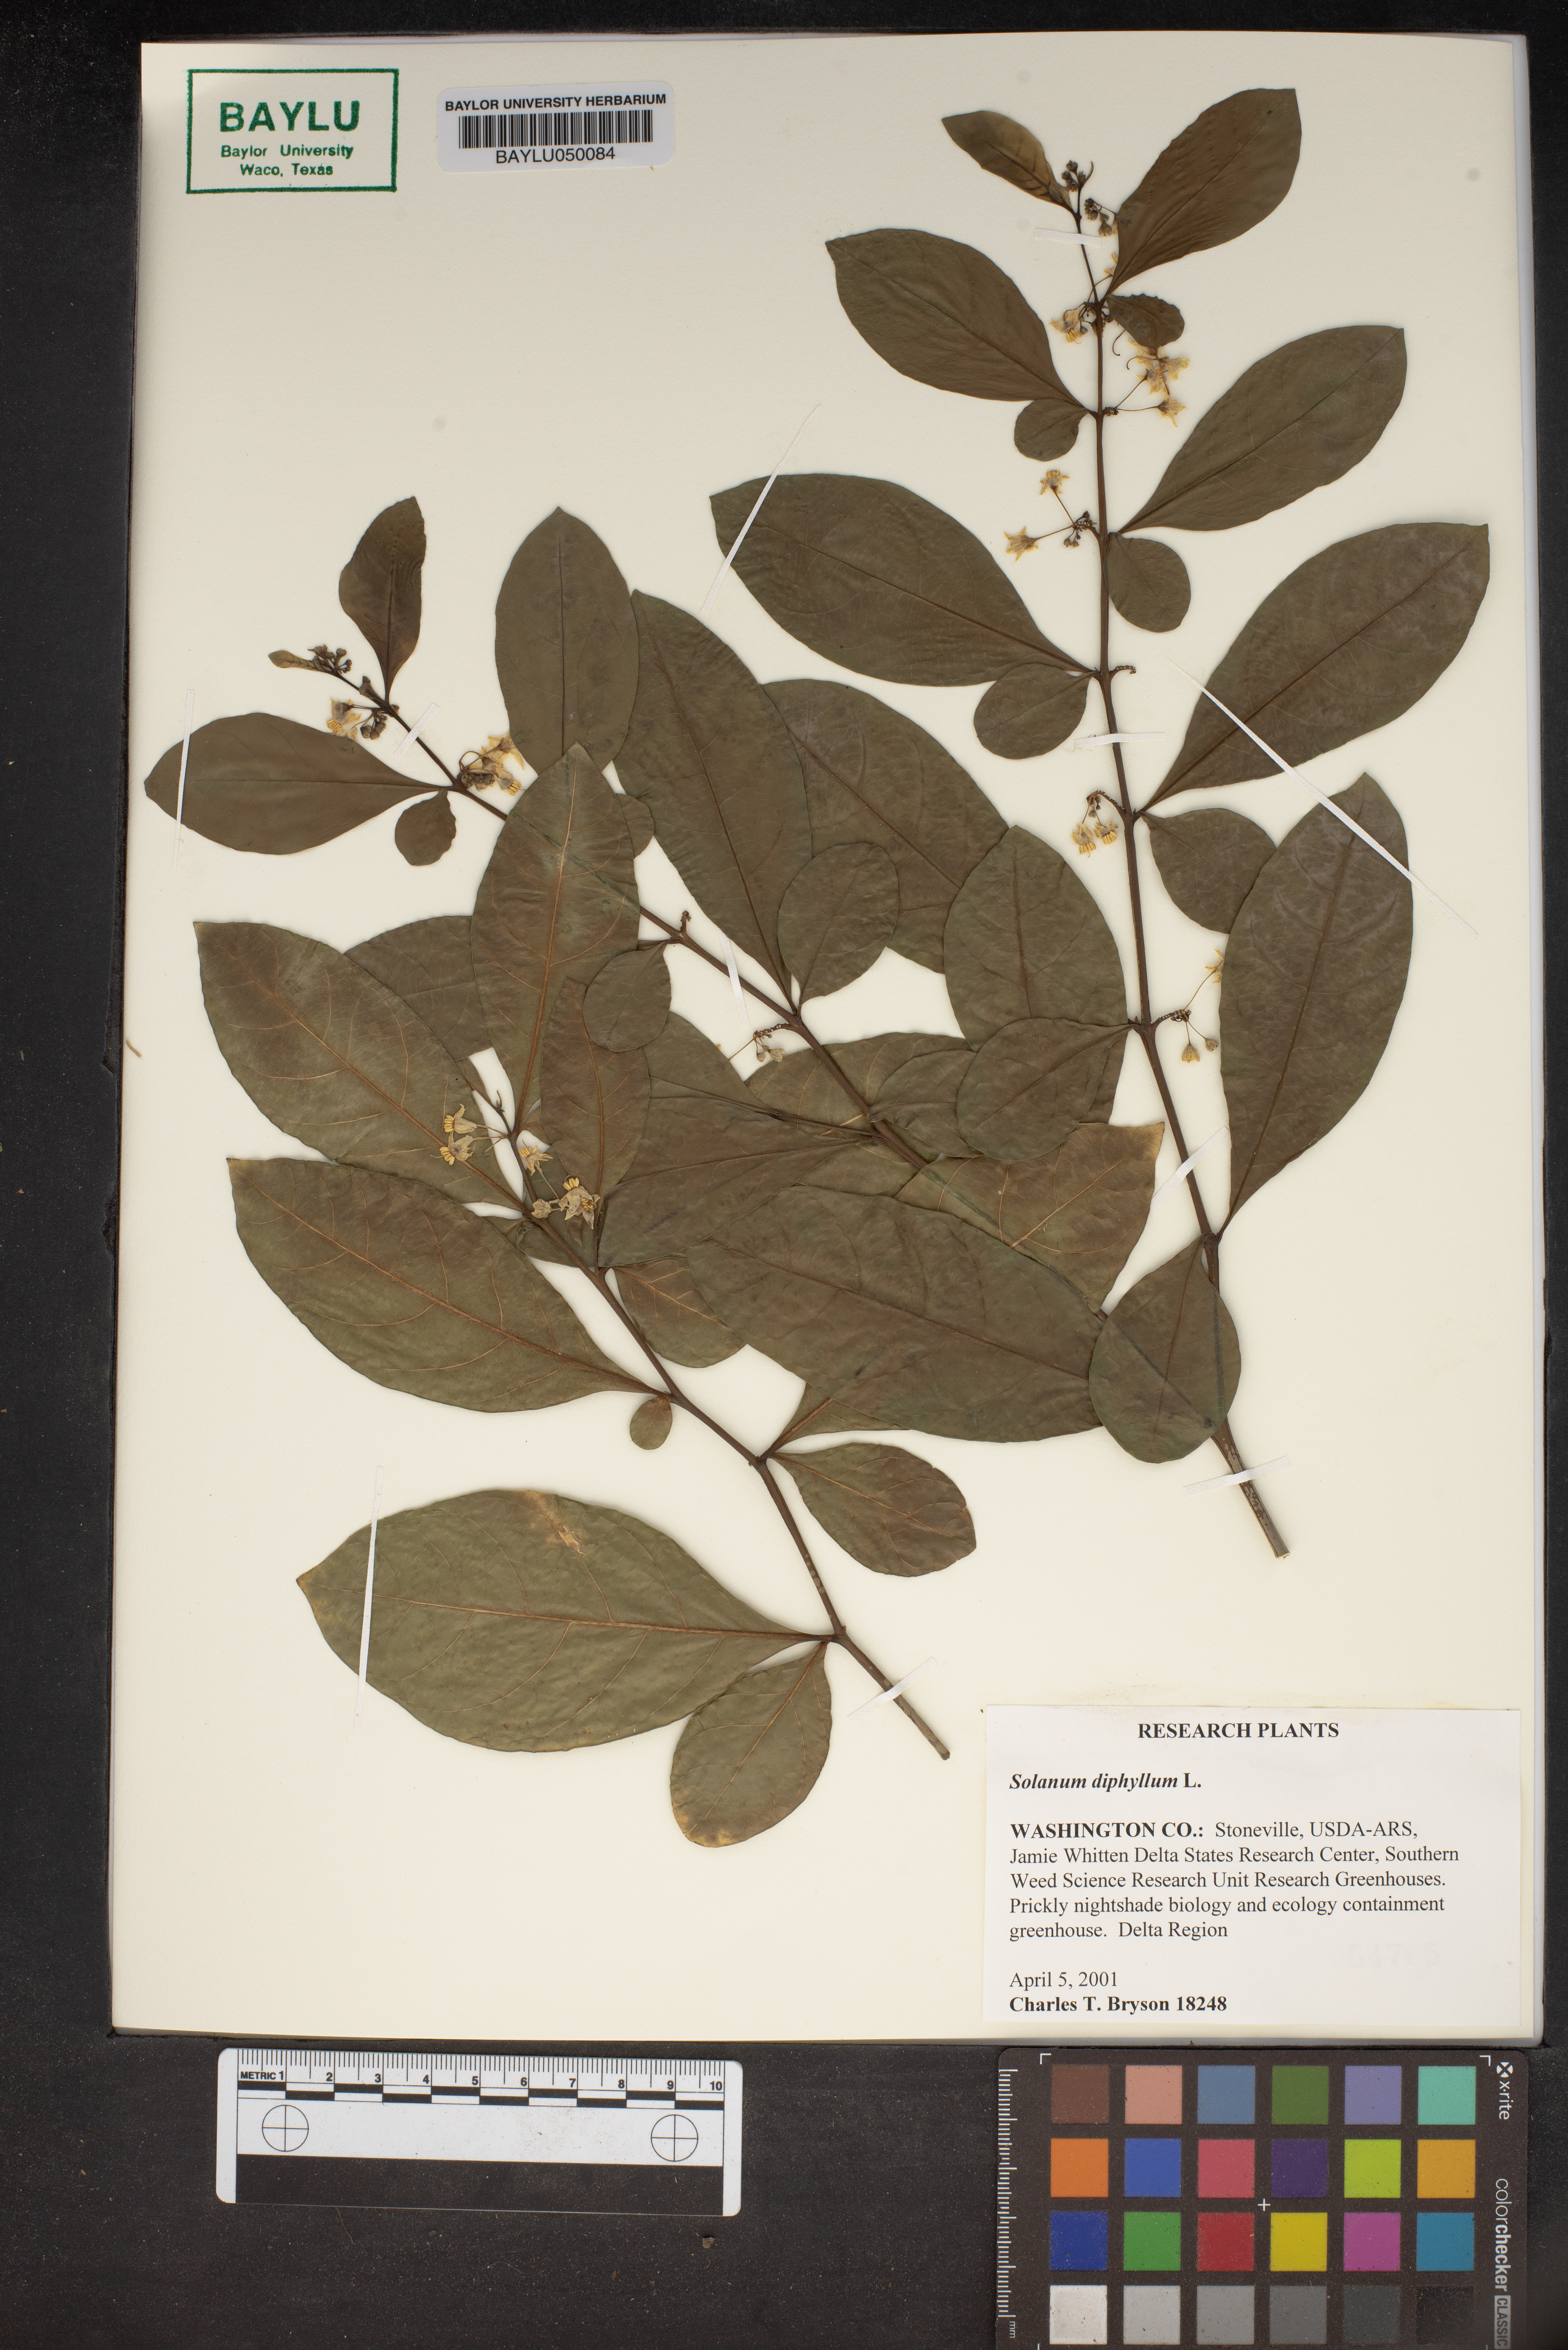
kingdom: Plantae
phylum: Tracheophyta
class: Magnoliopsida
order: Solanales
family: Solanaceae
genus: Solanum
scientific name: Solanum diphyllum
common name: Twoleaf nightshade
